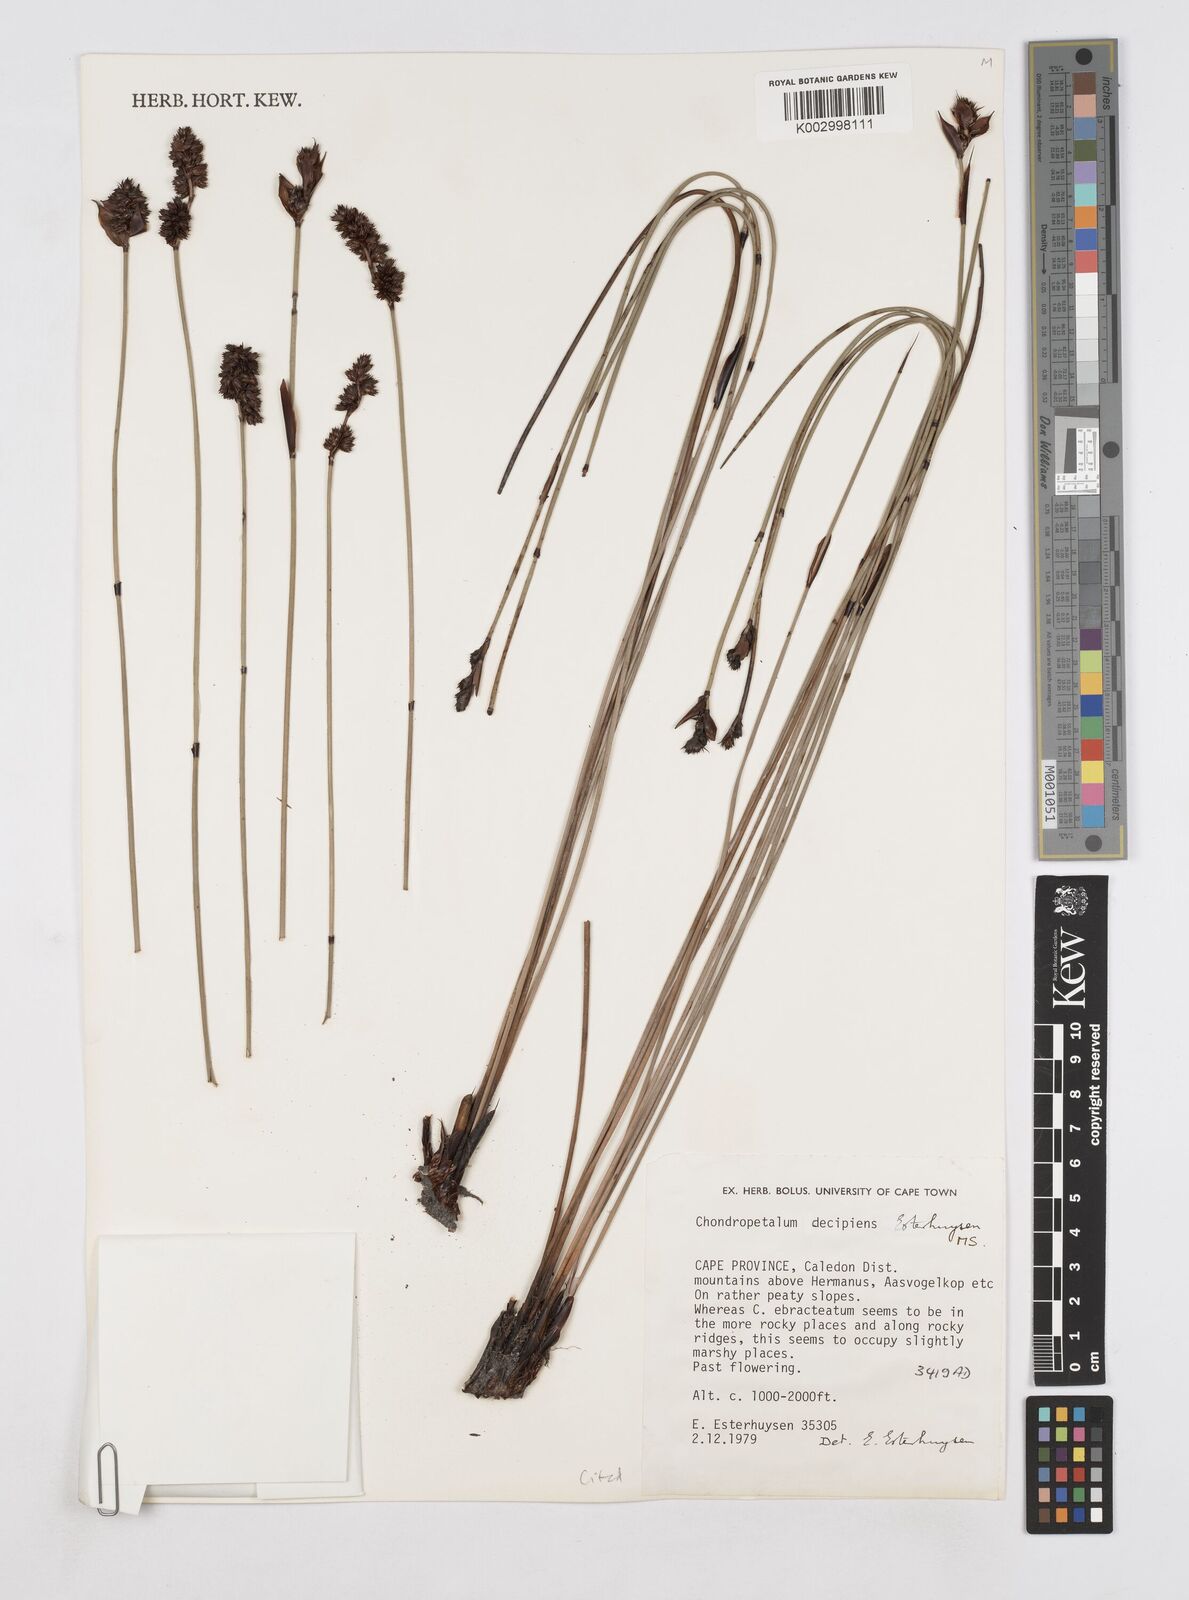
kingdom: Plantae
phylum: Tracheophyta
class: Liliopsida
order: Poales
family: Restionaceae
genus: Elegia
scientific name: Elegia
